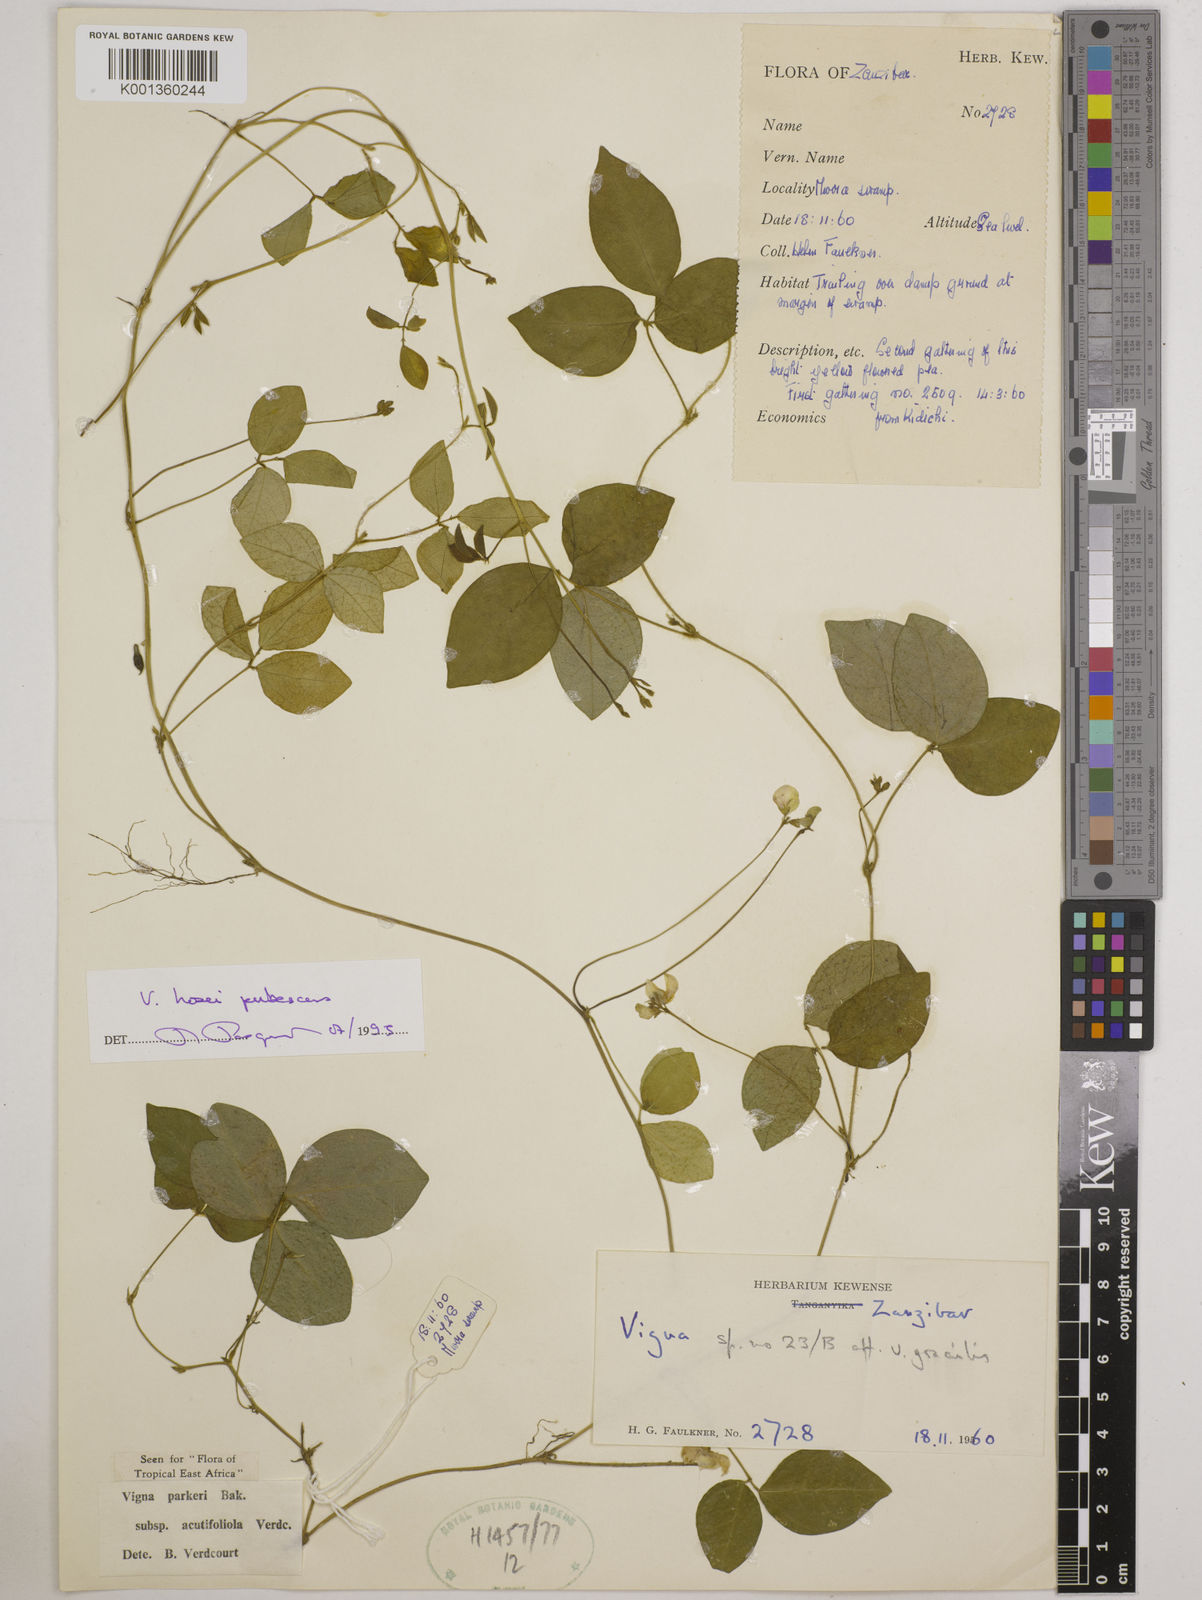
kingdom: Plantae
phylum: Tracheophyta
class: Magnoliopsida
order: Fabales
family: Fabaceae
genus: Vigna
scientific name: Vigna
